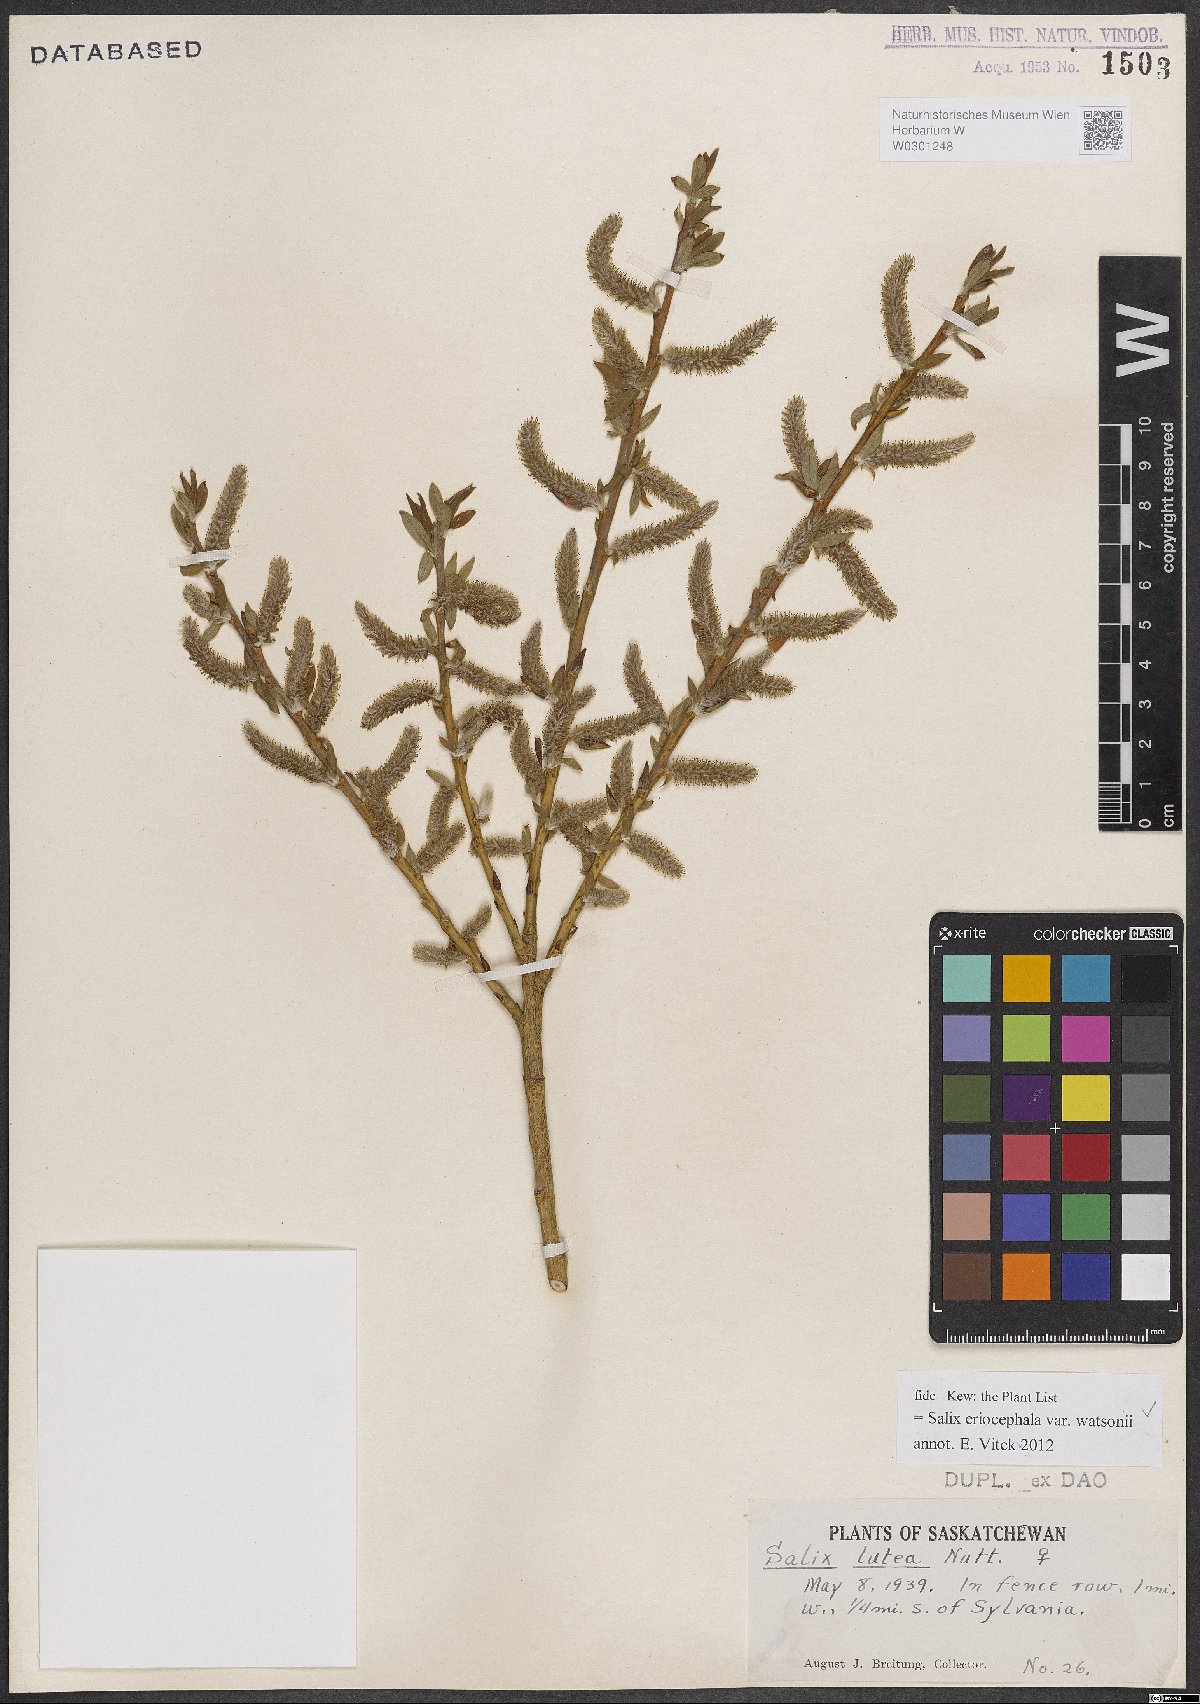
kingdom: Plantae
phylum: Tracheophyta
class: Magnoliopsida
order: Malpighiales
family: Salicaceae
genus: Salix
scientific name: Salix lutea
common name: Yellow willow
